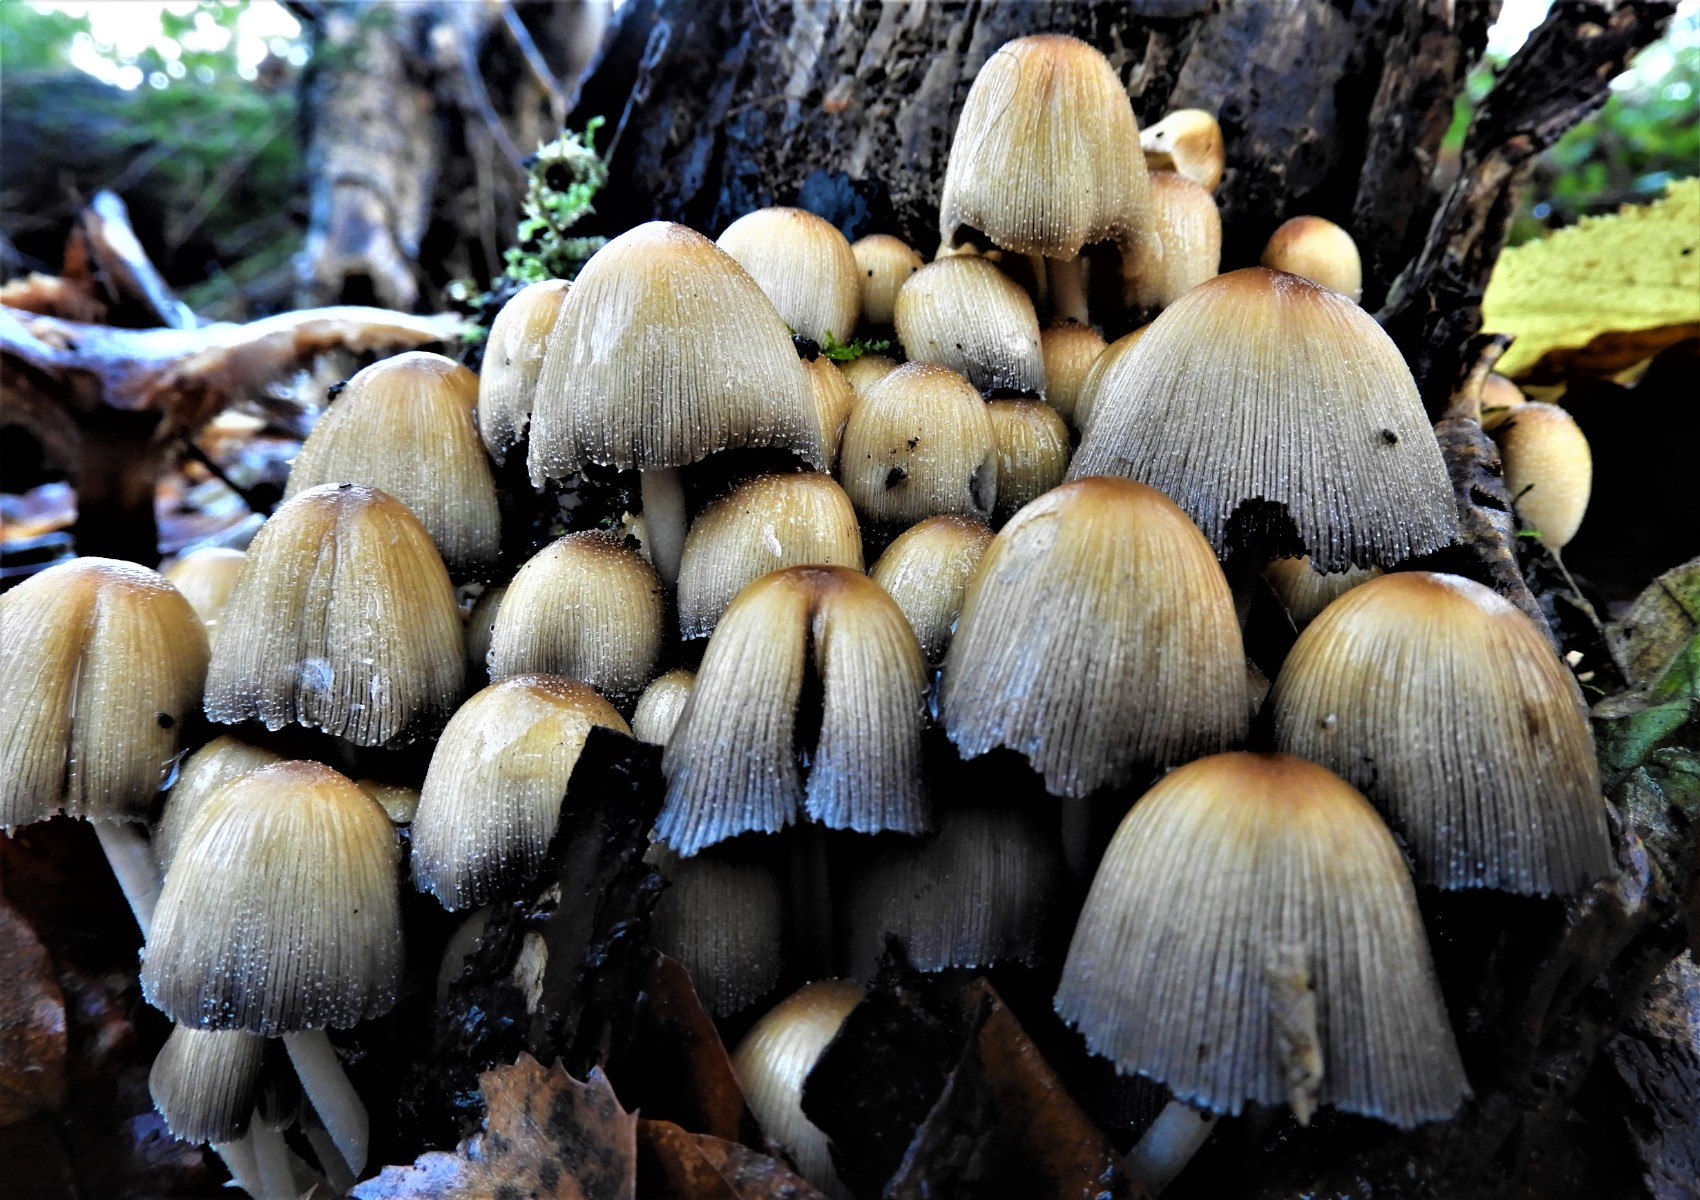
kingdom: Fungi
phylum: Basidiomycota
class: Agaricomycetes
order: Agaricales
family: Psathyrellaceae
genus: Coprinellus
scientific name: Coprinellus micaceus
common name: glimmer-blækhat
